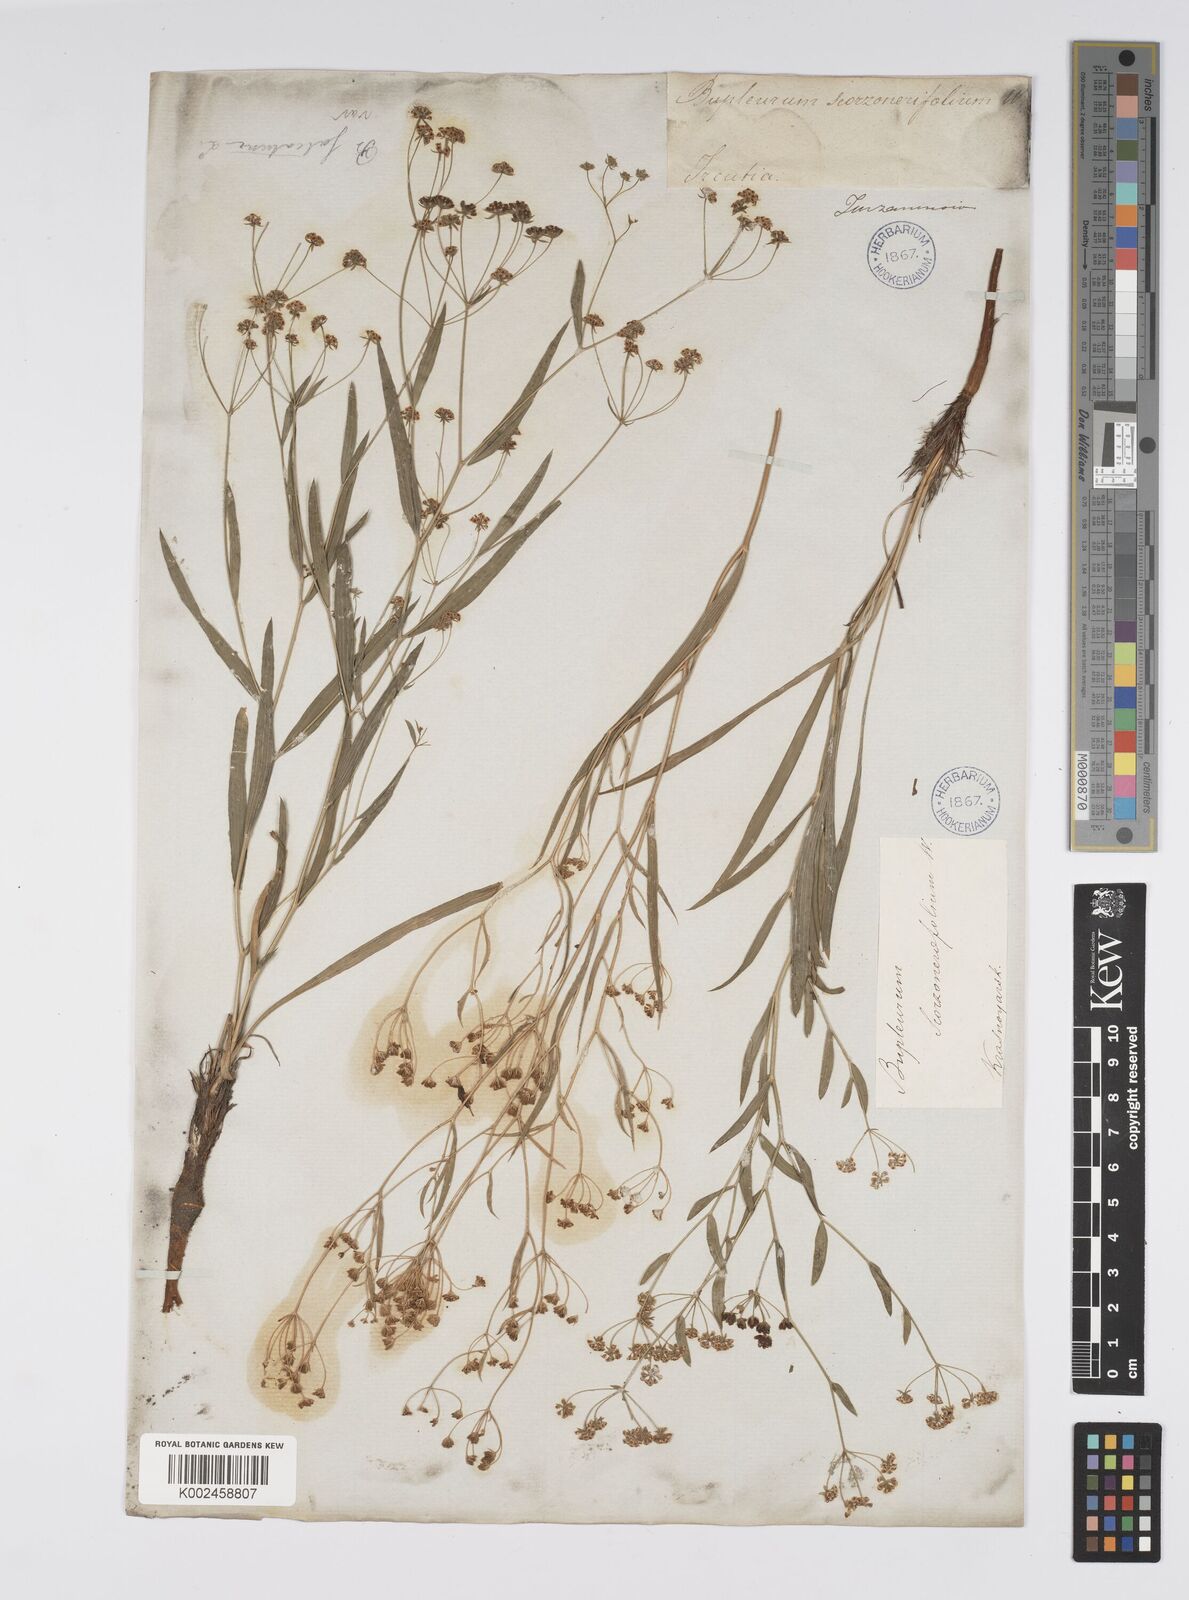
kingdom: Plantae
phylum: Tracheophyta
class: Magnoliopsida
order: Apiales
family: Apiaceae
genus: Bupleurum
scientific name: Bupleurum falcatum
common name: Sickle-leaved hare's-ear
